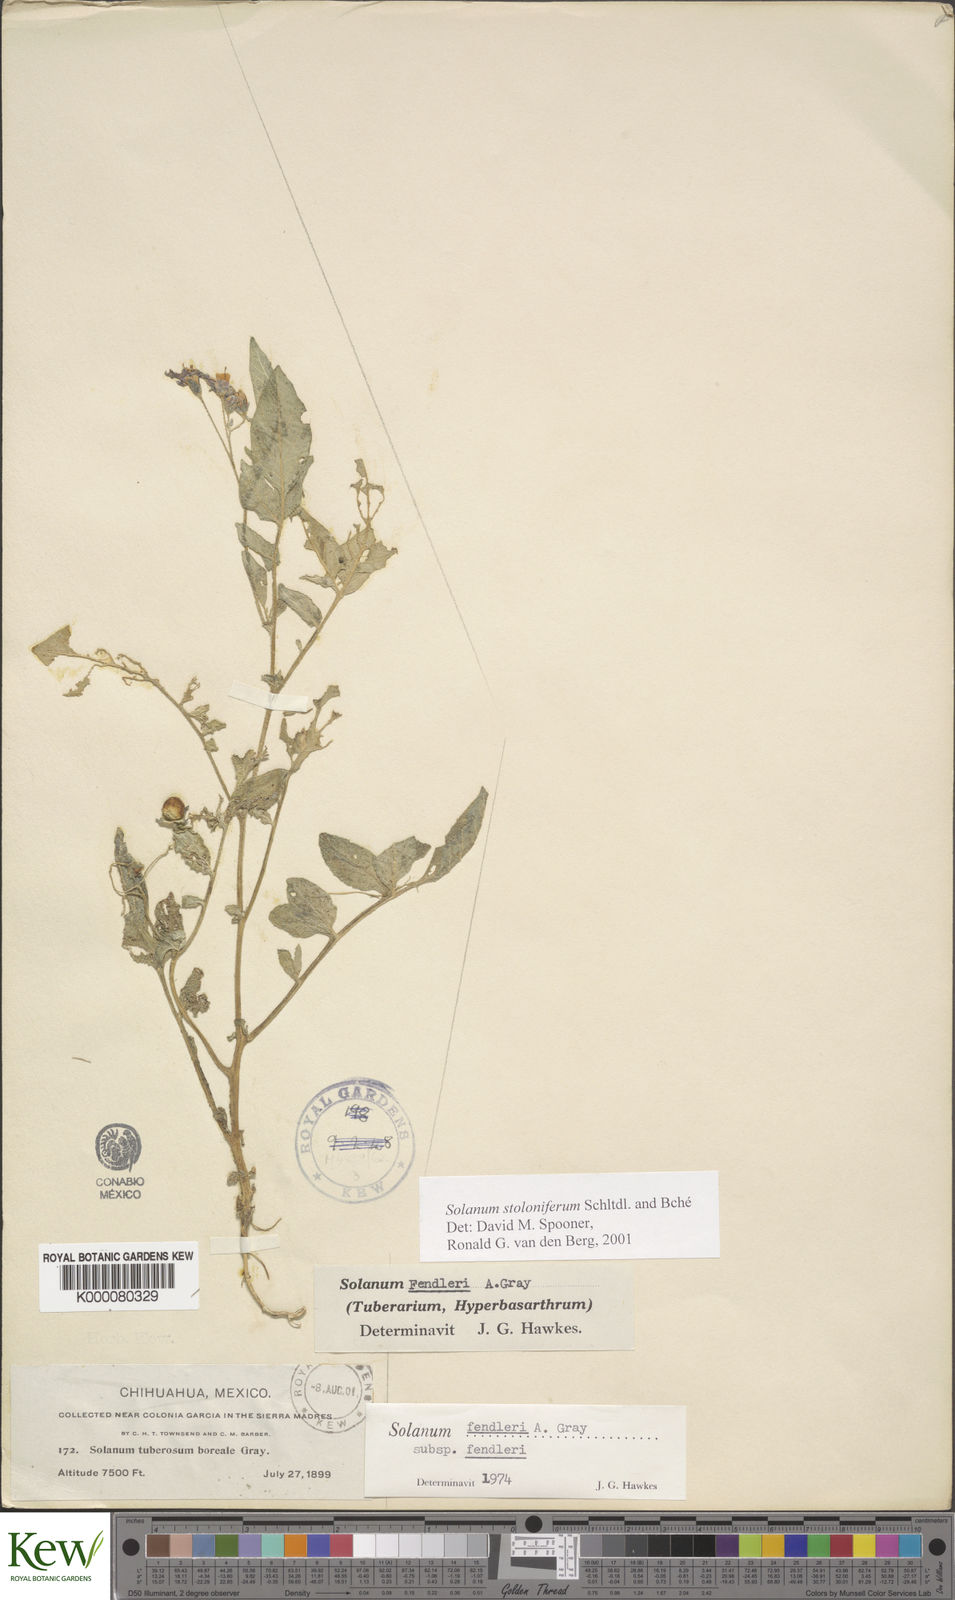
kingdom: Plantae
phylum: Tracheophyta
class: Magnoliopsida
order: Solanales
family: Solanaceae
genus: Solanum
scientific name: Solanum stoloniferum
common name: Fendler's nighshade
